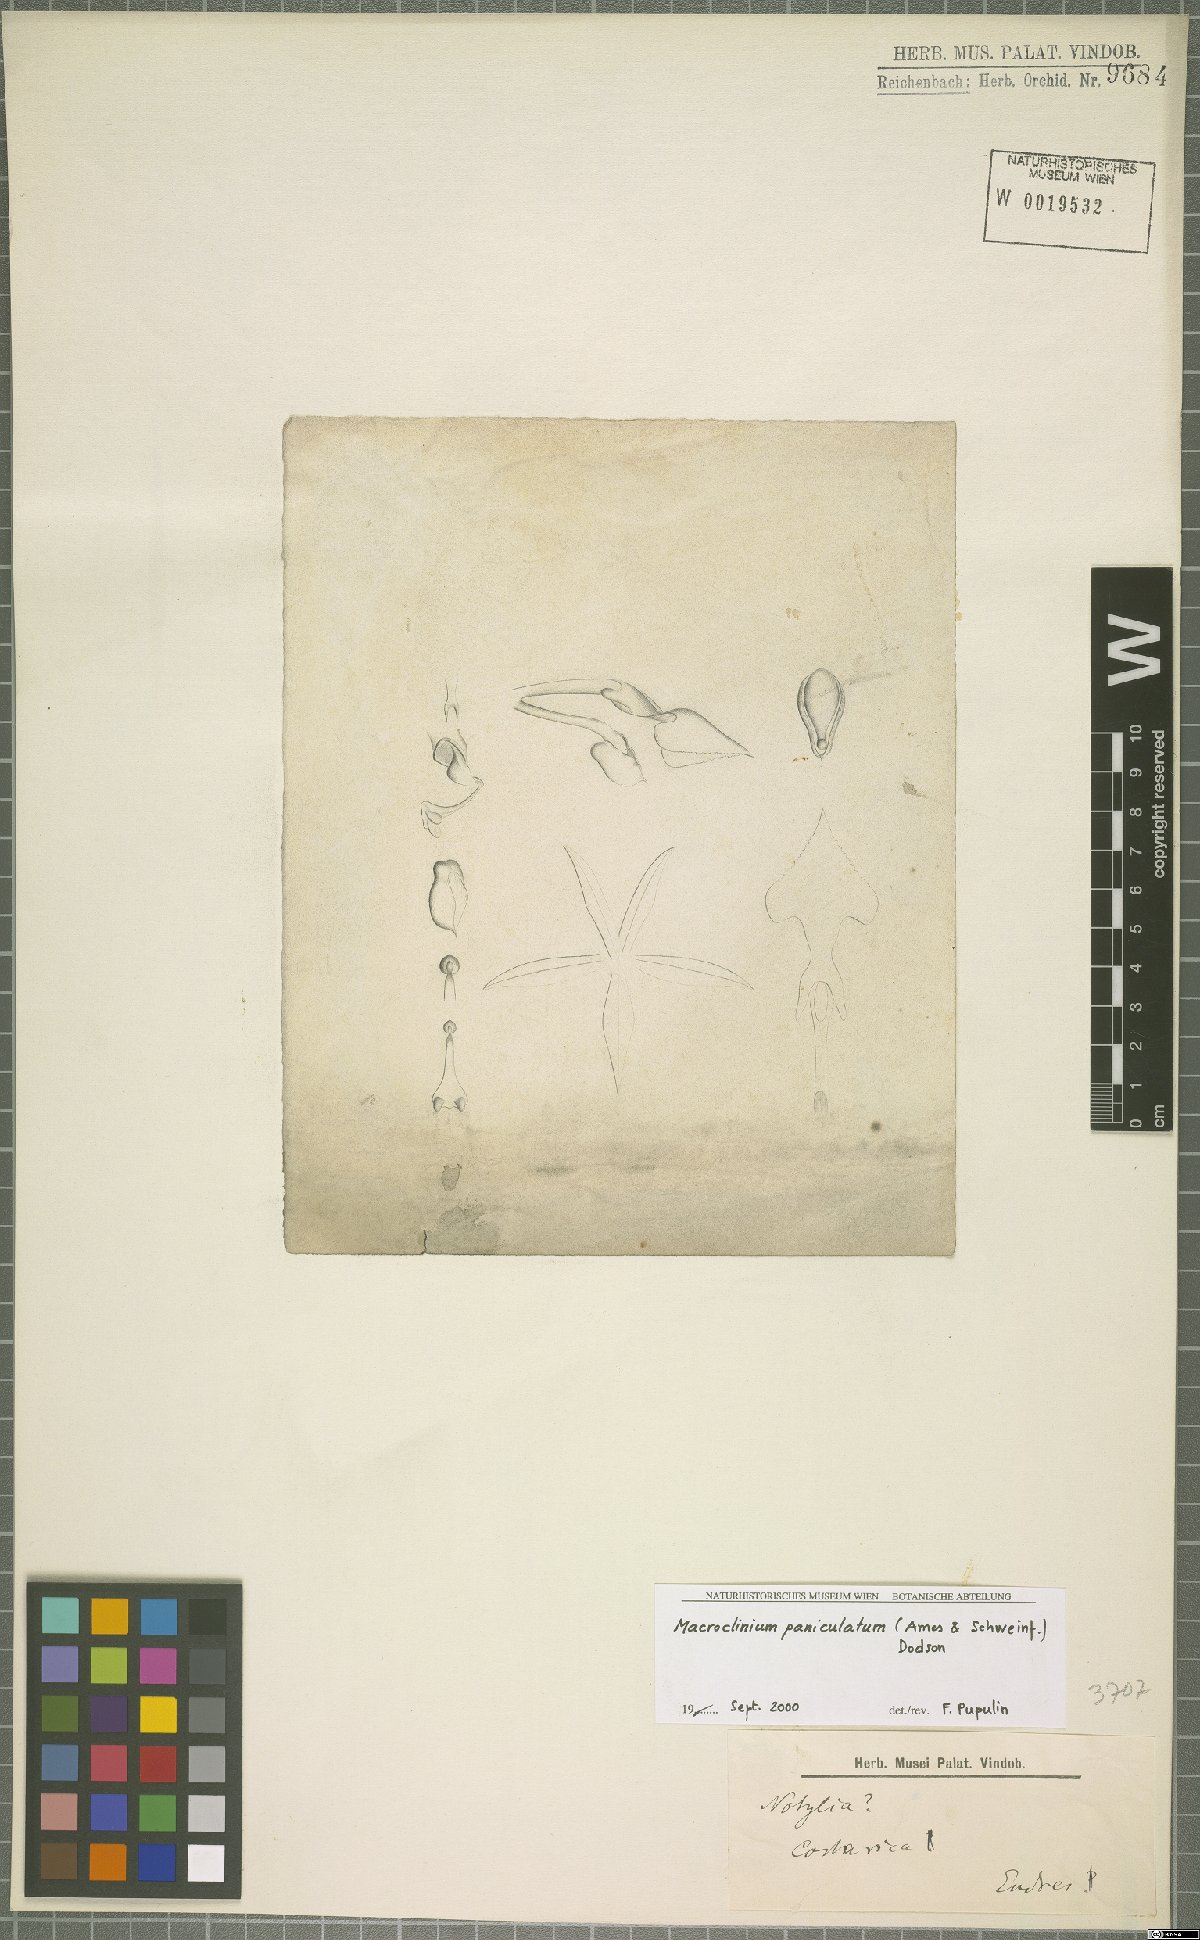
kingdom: Plantae
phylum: Tracheophyta
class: Liliopsida
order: Asparagales
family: Orchidaceae
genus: Macroclinium
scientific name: Macroclinium paniculatum
